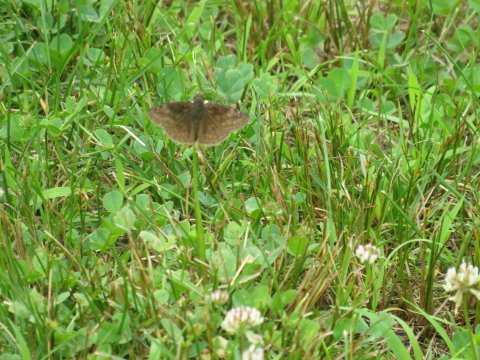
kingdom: Animalia
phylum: Arthropoda
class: Insecta
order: Lepidoptera
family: Hesperiidae
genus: Gesta
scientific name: Gesta
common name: Wild Indigo Duskywing
